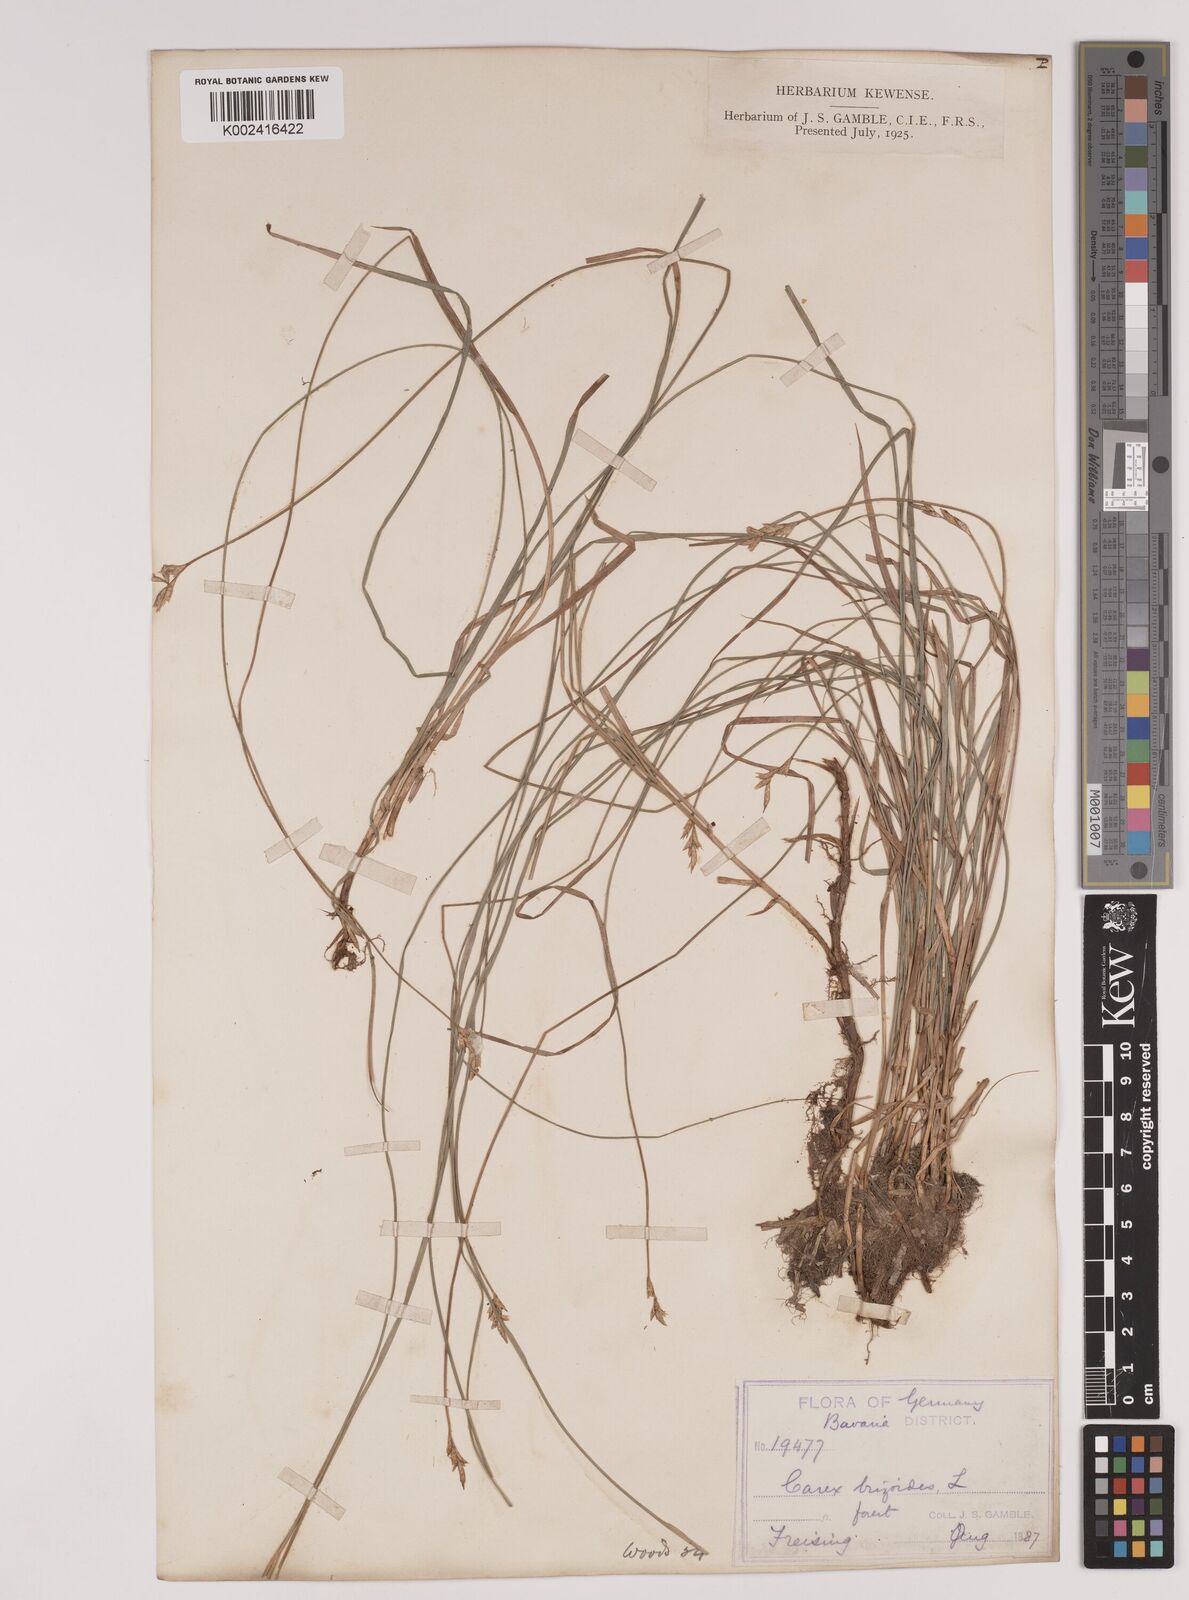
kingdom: Plantae
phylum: Tracheophyta
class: Liliopsida
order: Poales
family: Cyperaceae
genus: Carex
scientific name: Carex brizoides
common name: Quaking-grass sedge
